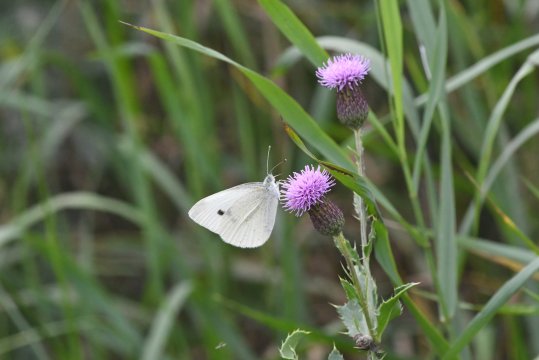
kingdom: Animalia
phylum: Arthropoda
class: Insecta
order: Lepidoptera
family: Pieridae
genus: Pieris
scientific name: Pieris rapae
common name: Cabbage White
